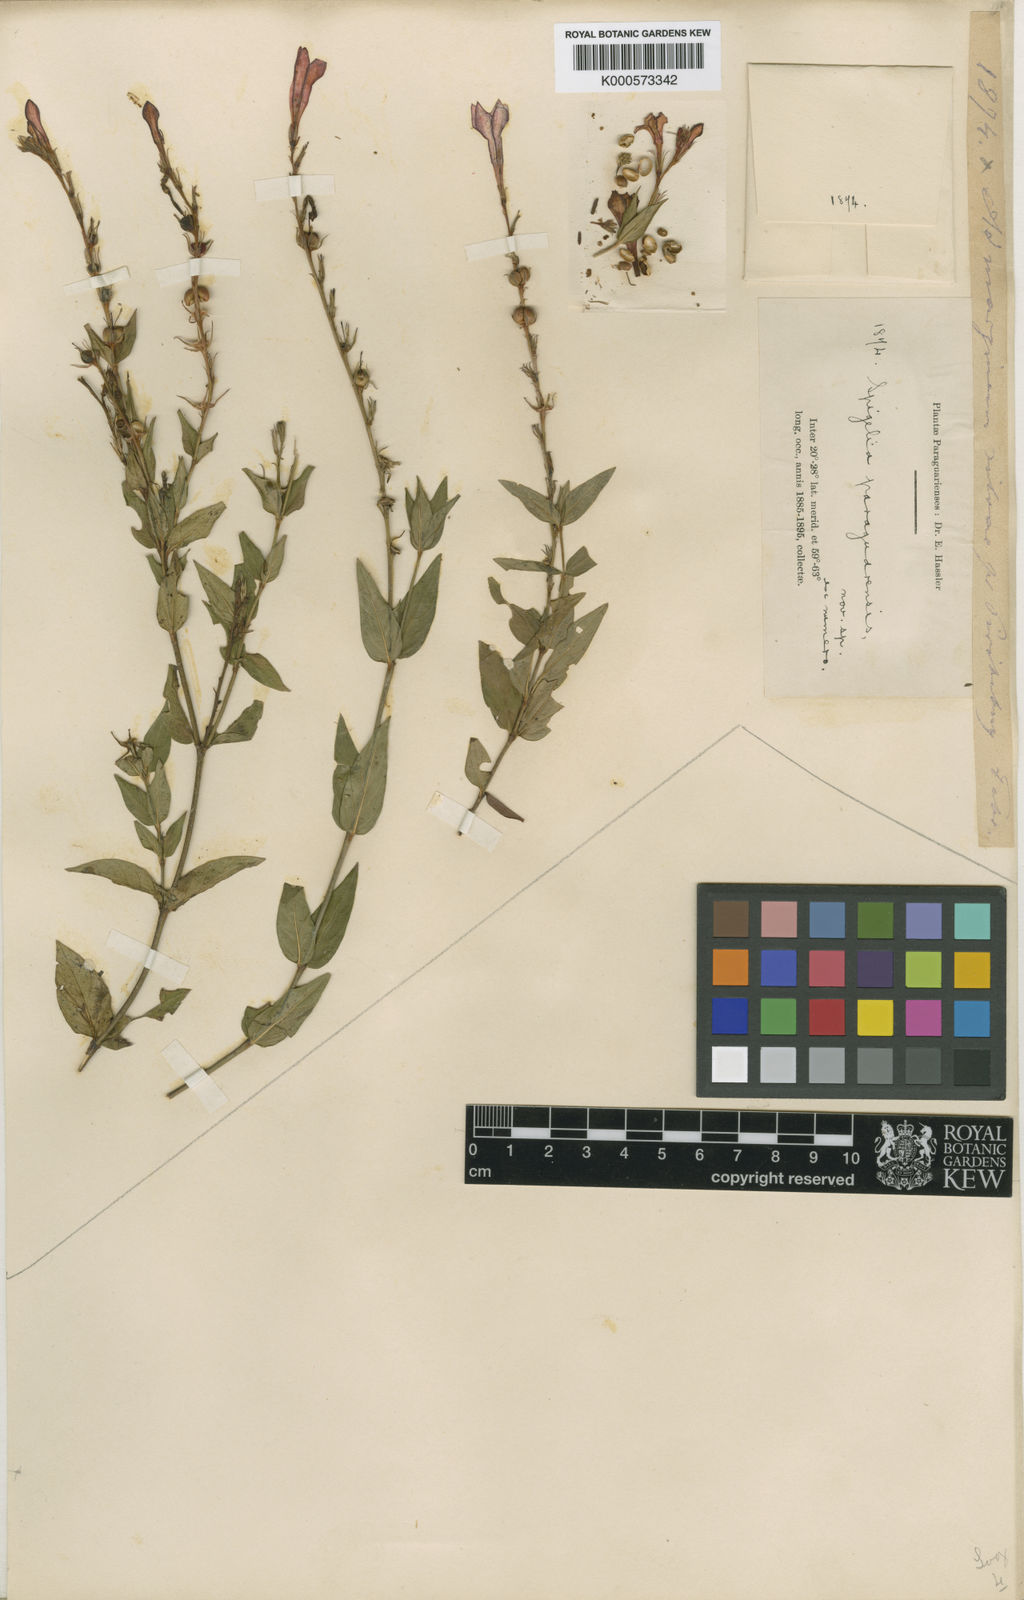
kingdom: Plantae
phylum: Tracheophyta
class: Magnoliopsida
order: Gentianales
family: Loganiaceae
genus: Spigelia
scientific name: Spigelia
